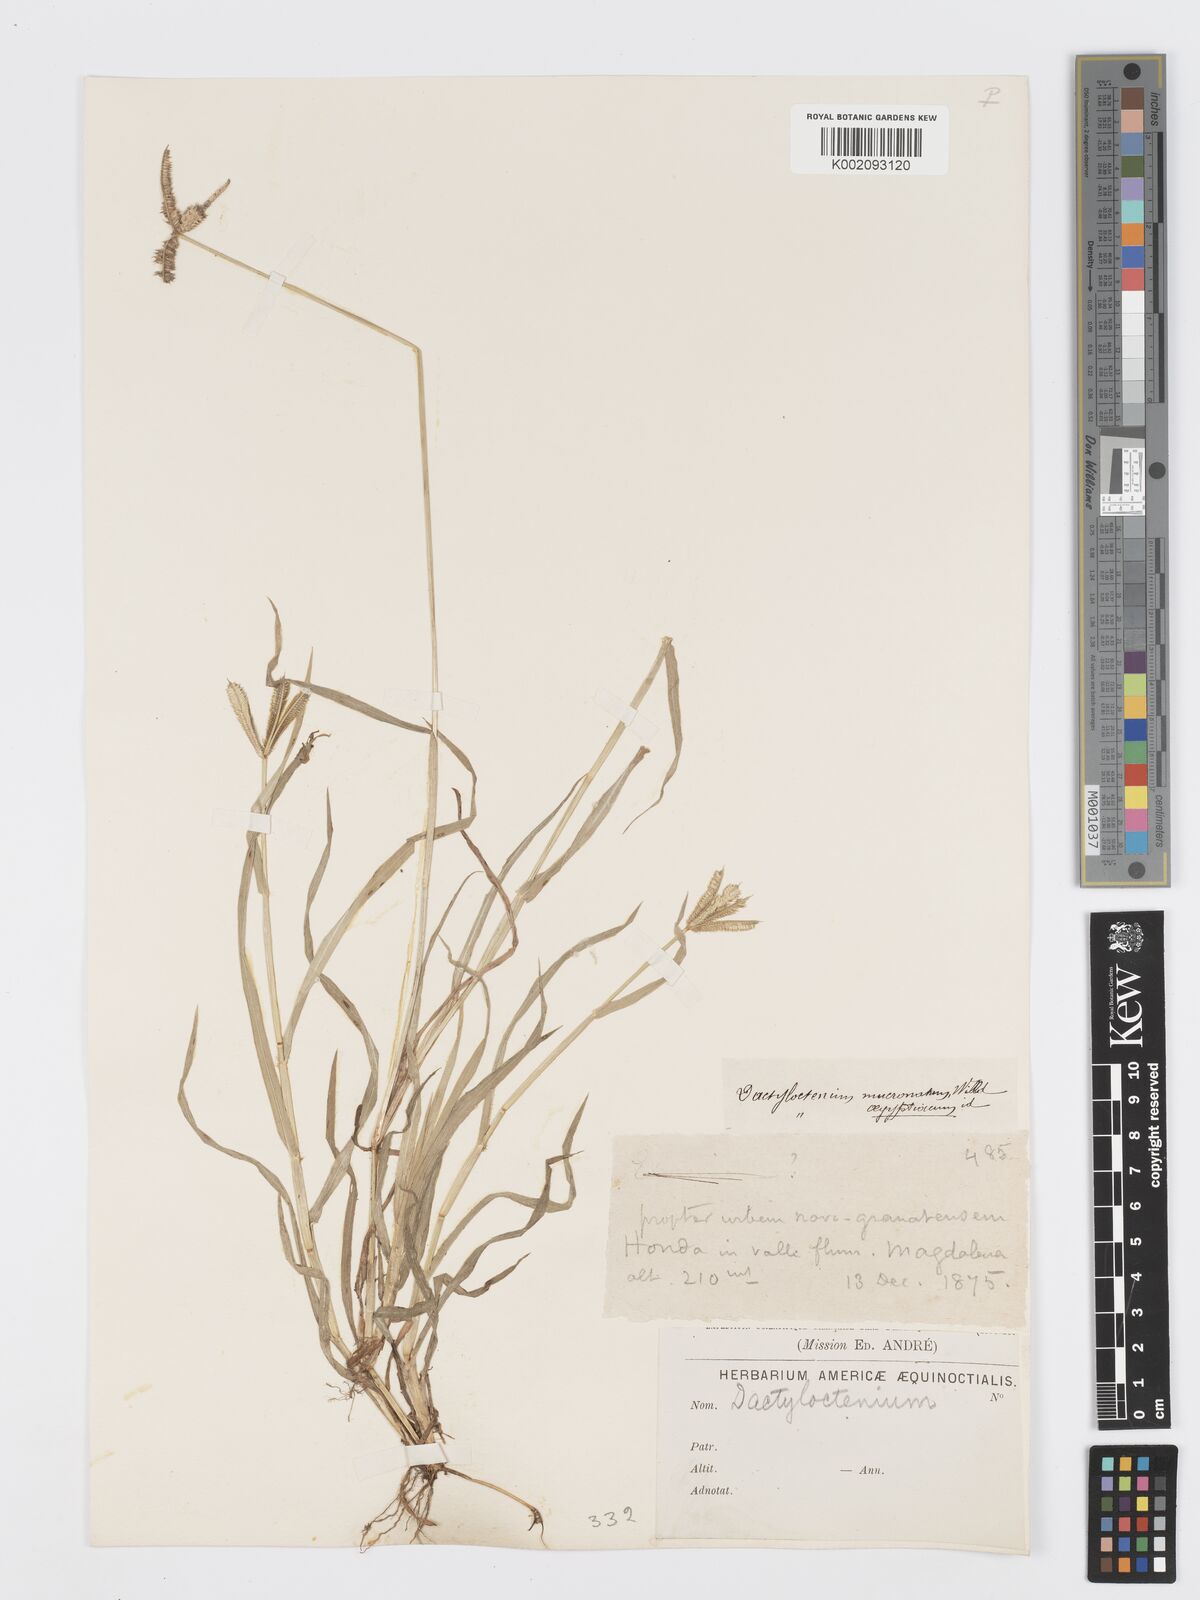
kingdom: Plantae
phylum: Tracheophyta
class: Liliopsida
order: Poales
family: Poaceae
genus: Dactyloctenium
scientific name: Dactyloctenium aegyptium
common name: Egyptian grass
